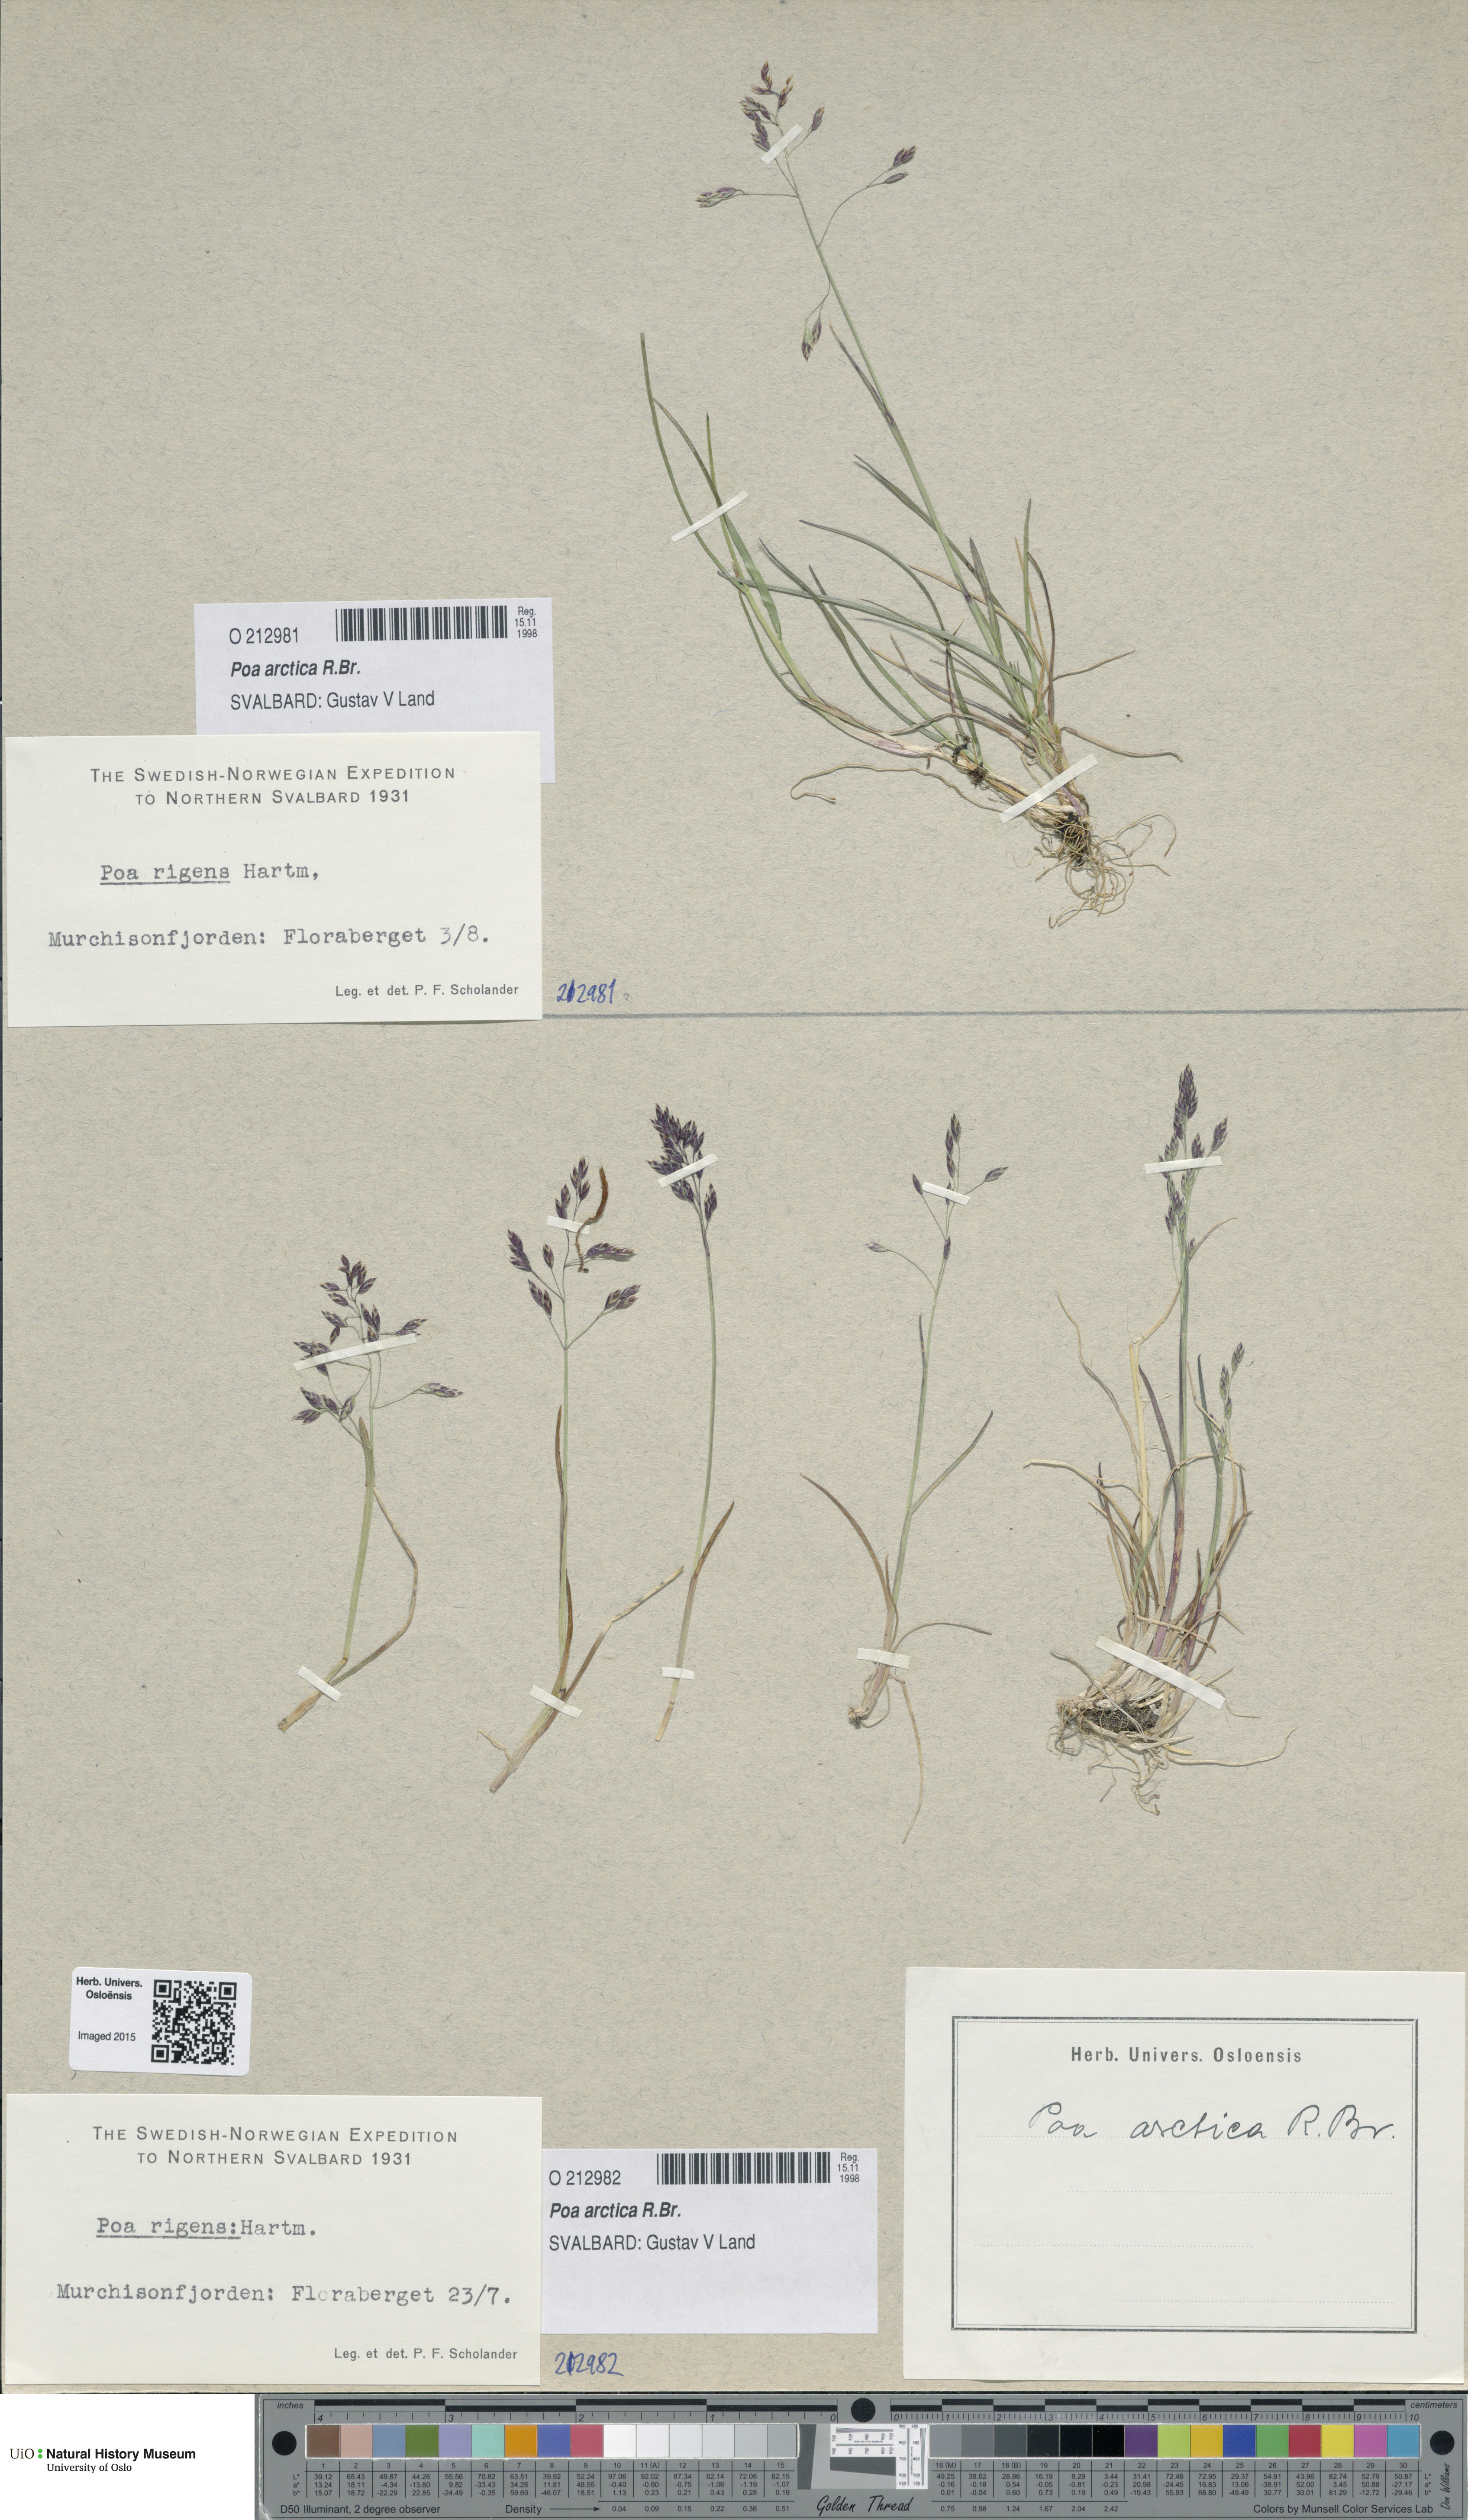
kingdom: Plantae
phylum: Tracheophyta
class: Liliopsida
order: Poales
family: Poaceae
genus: Poa
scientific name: Poa arctica
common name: Arctic bluegrass
